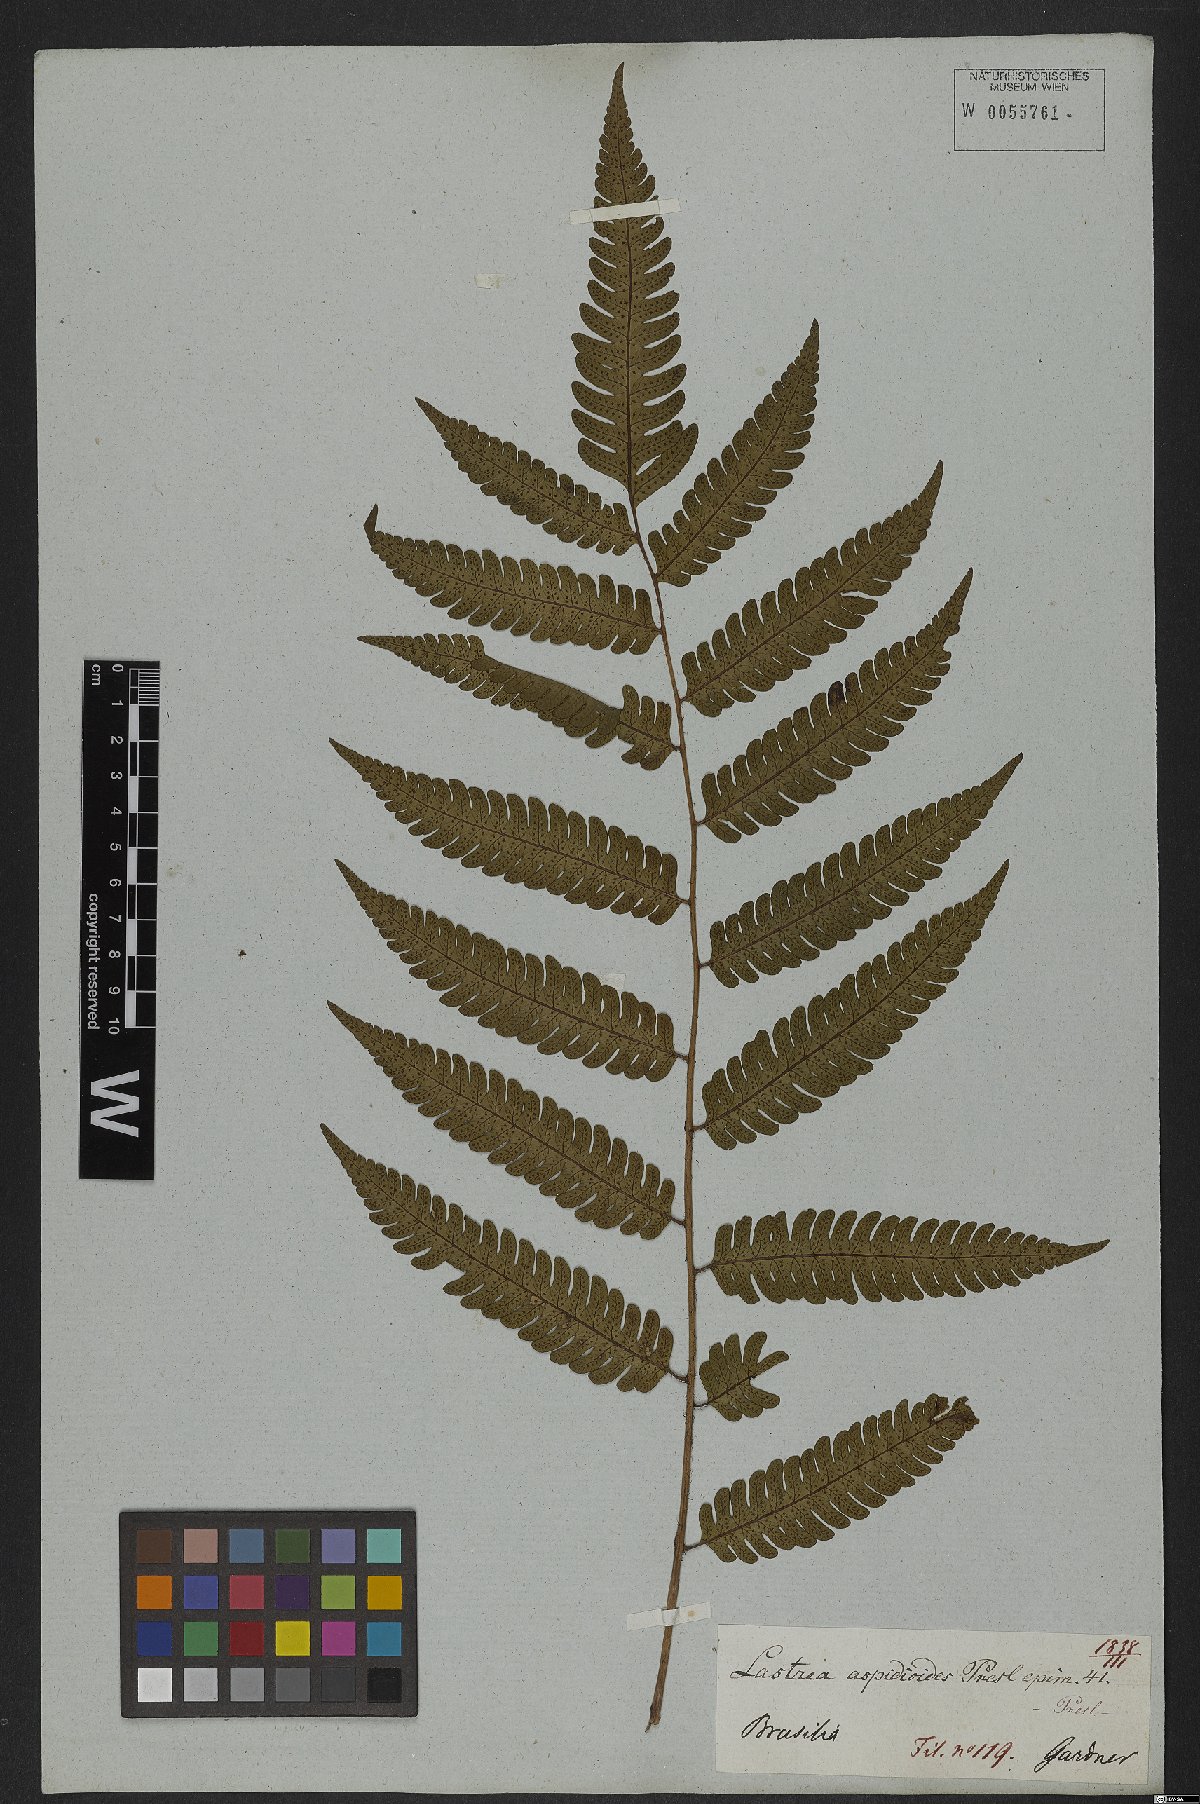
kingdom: Plantae
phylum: Tracheophyta
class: Polypodiopsida
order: Polypodiales
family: Dryopteridaceae
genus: Ctenitis
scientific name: Ctenitis aspidioides
